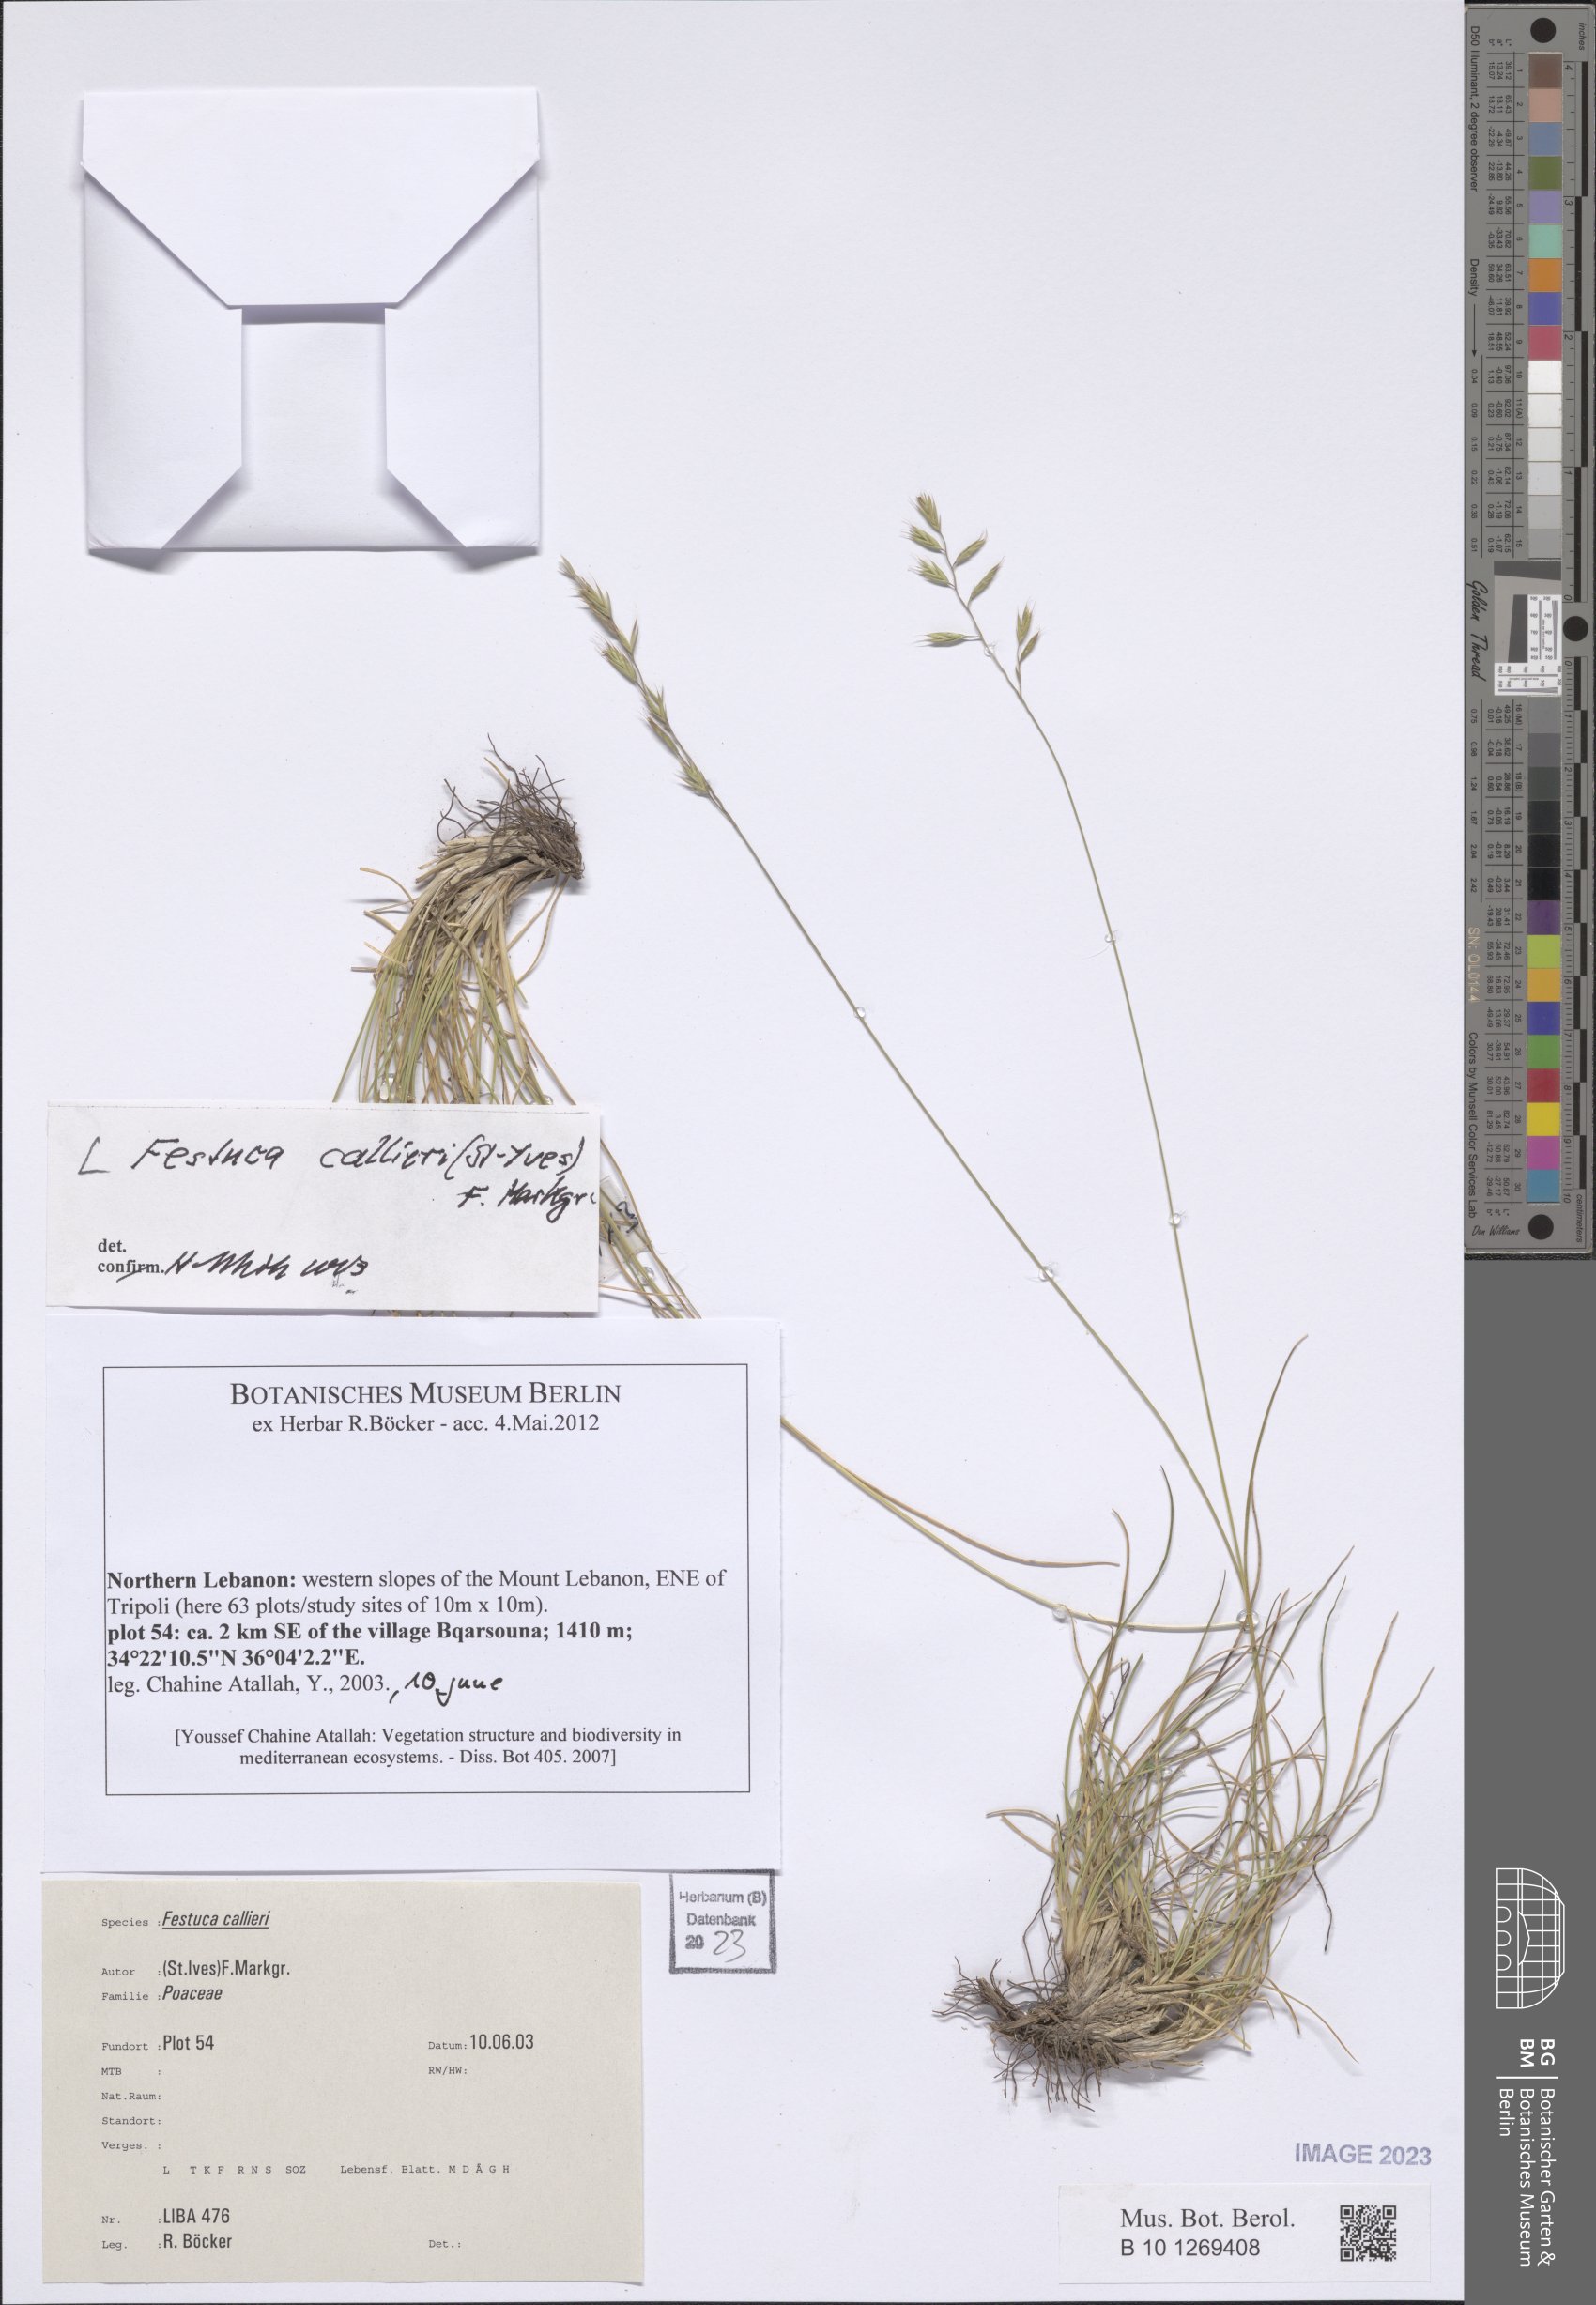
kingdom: Plantae
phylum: Tracheophyta
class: Liliopsida
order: Poales
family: Poaceae
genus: Festuca
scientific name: Festuca callieri
